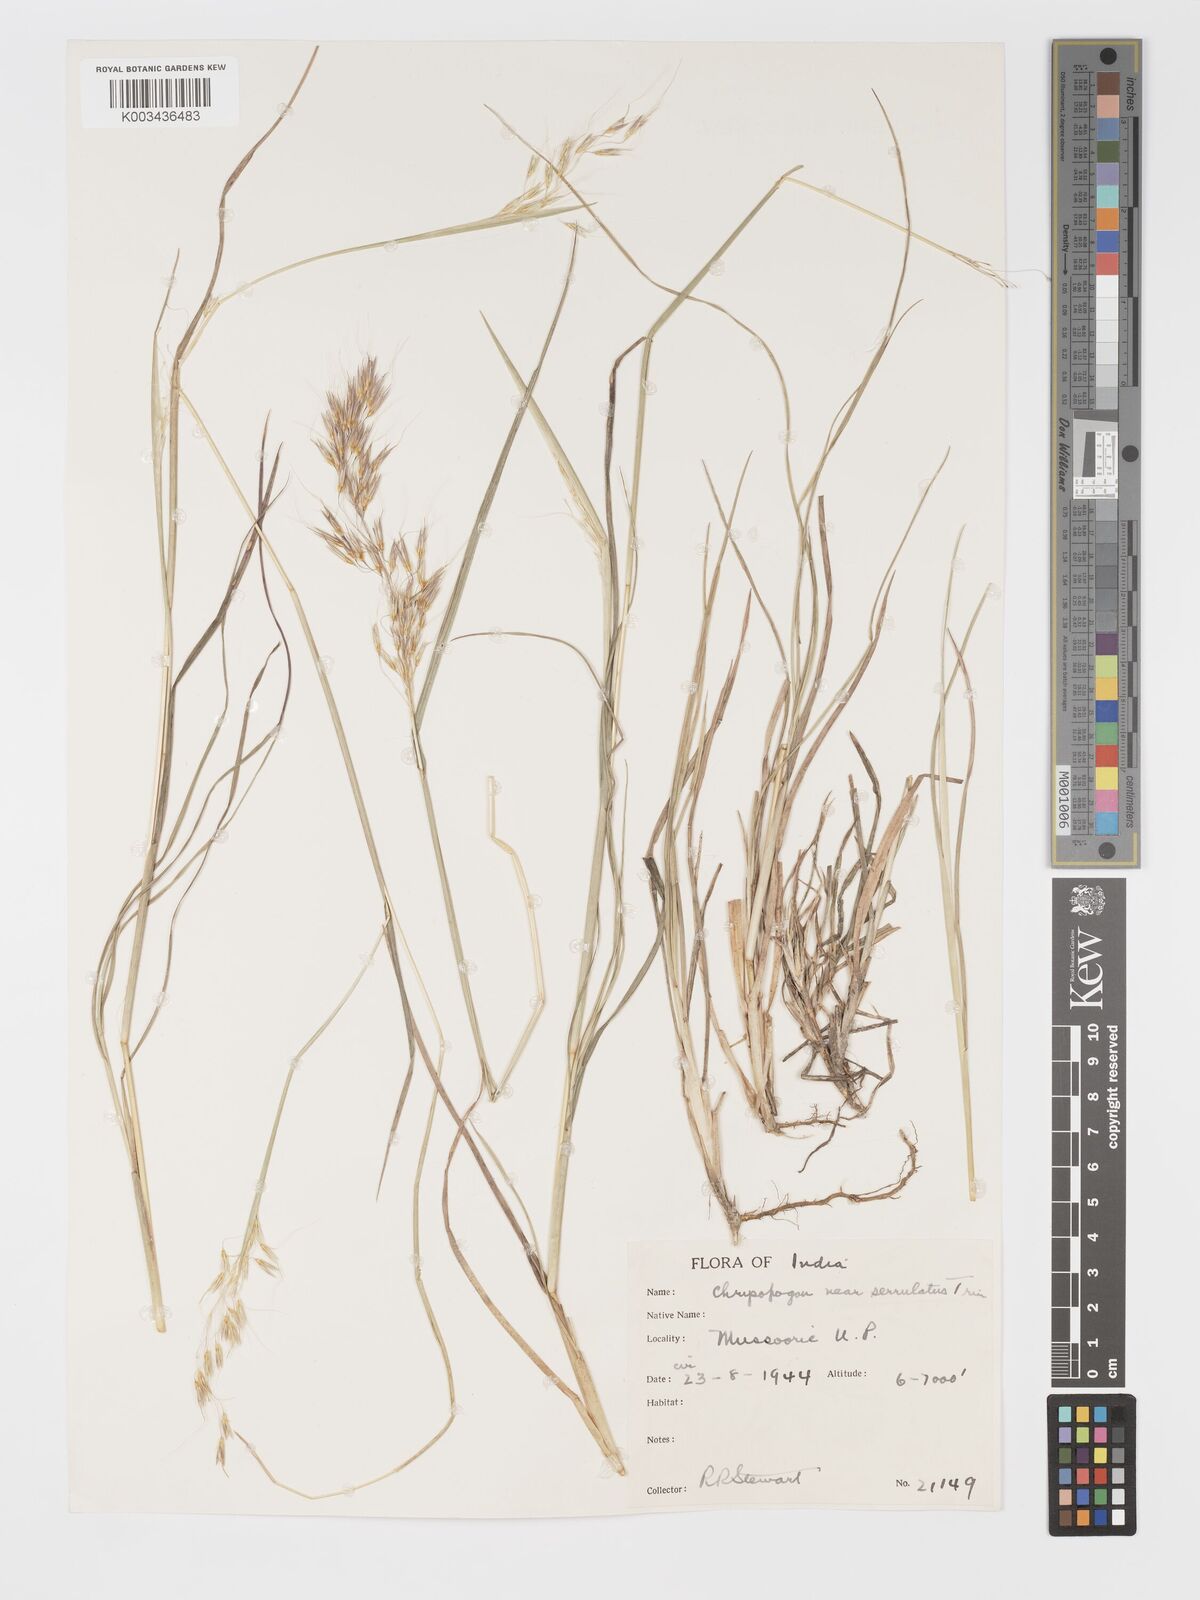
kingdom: Plantae
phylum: Tracheophyta
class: Liliopsida
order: Poales
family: Poaceae
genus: Chrysopogon
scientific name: Chrysopogon
